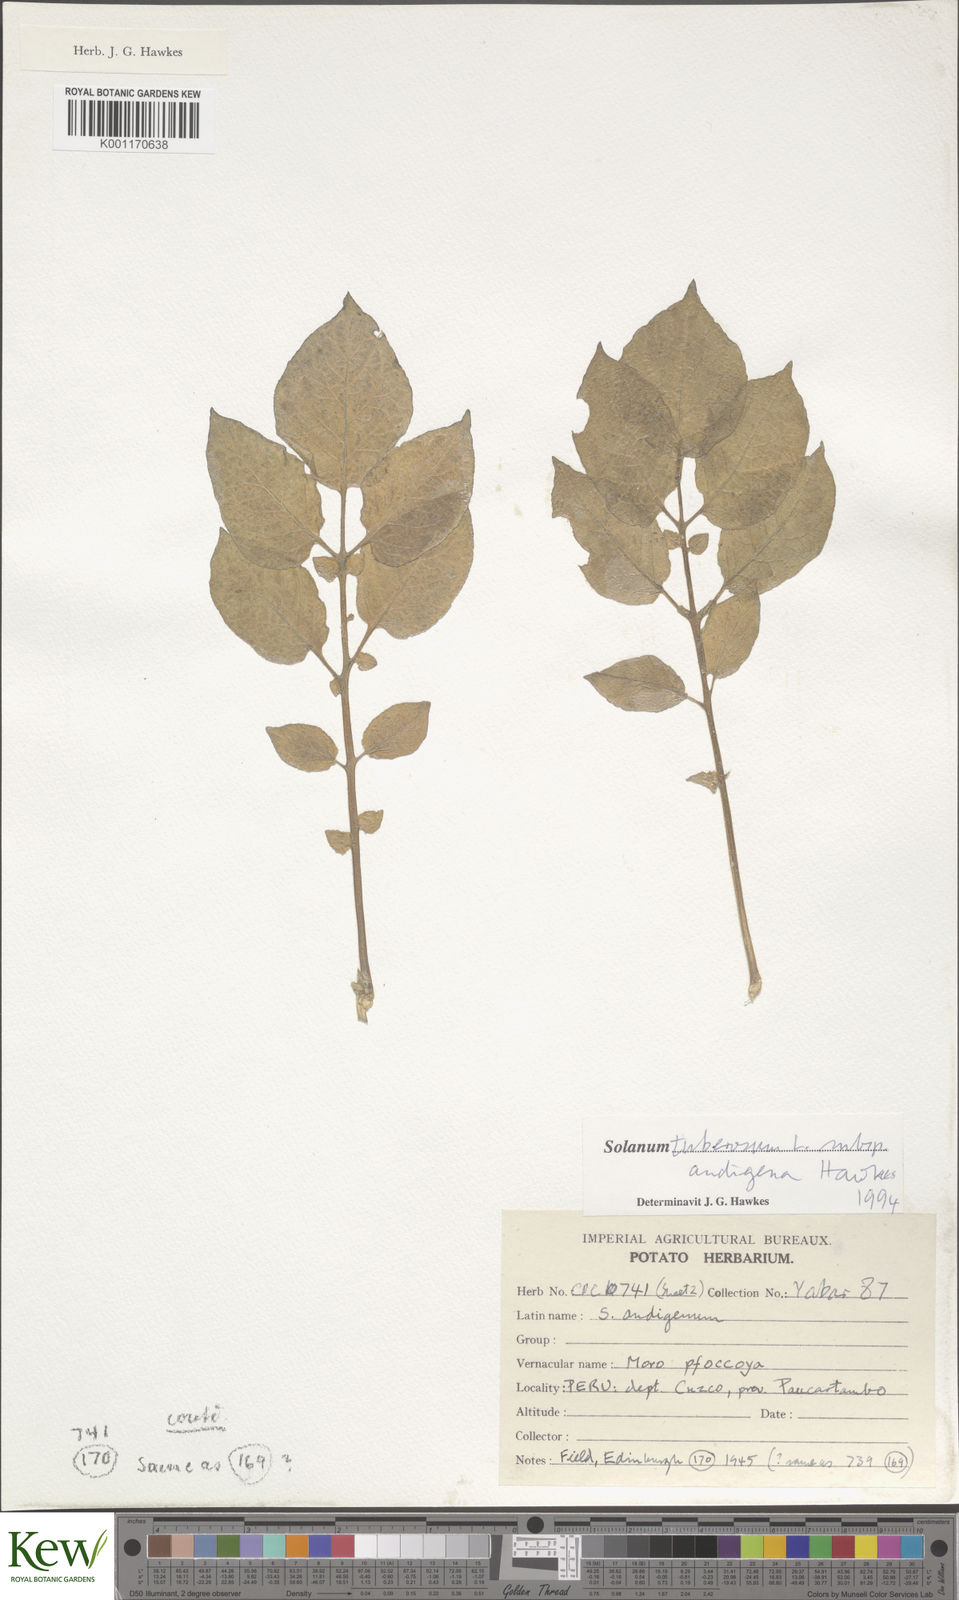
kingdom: Plantae
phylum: Tracheophyta
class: Magnoliopsida
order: Solanales
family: Solanaceae
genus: Solanum
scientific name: Solanum tuberosum
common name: Potato
